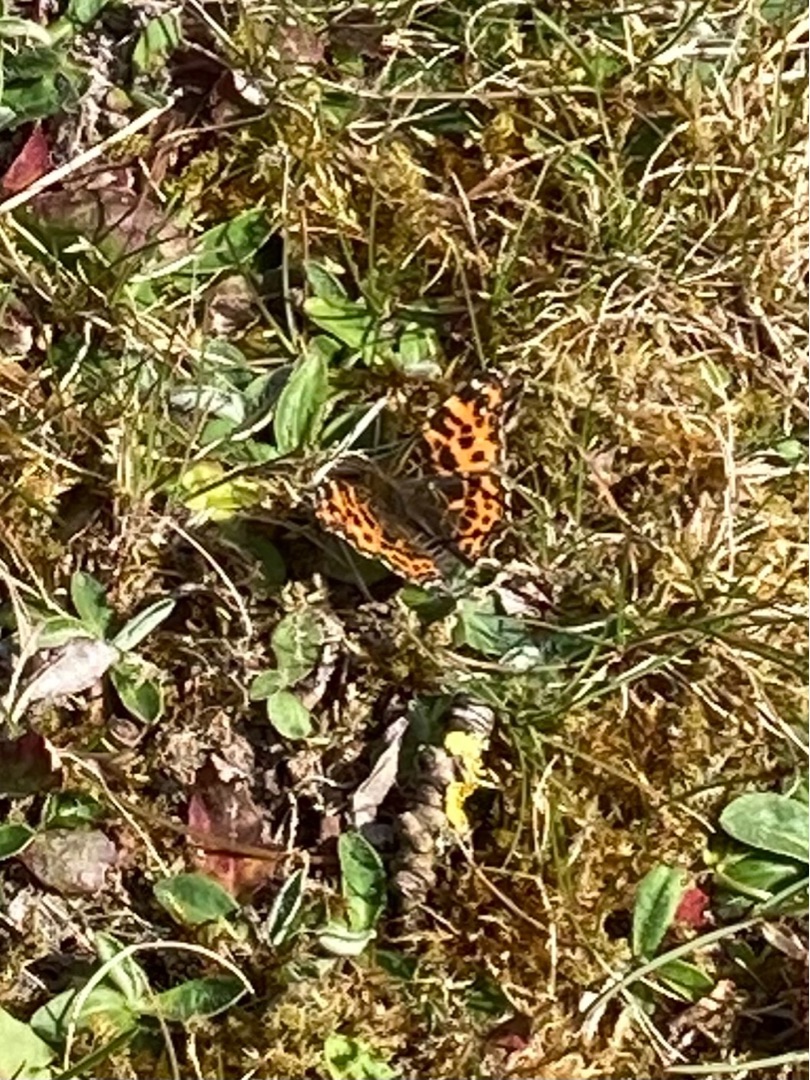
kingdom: Animalia
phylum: Arthropoda
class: Insecta
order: Lepidoptera
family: Nymphalidae
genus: Araschnia
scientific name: Araschnia levana
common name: Nældesommerfugl
